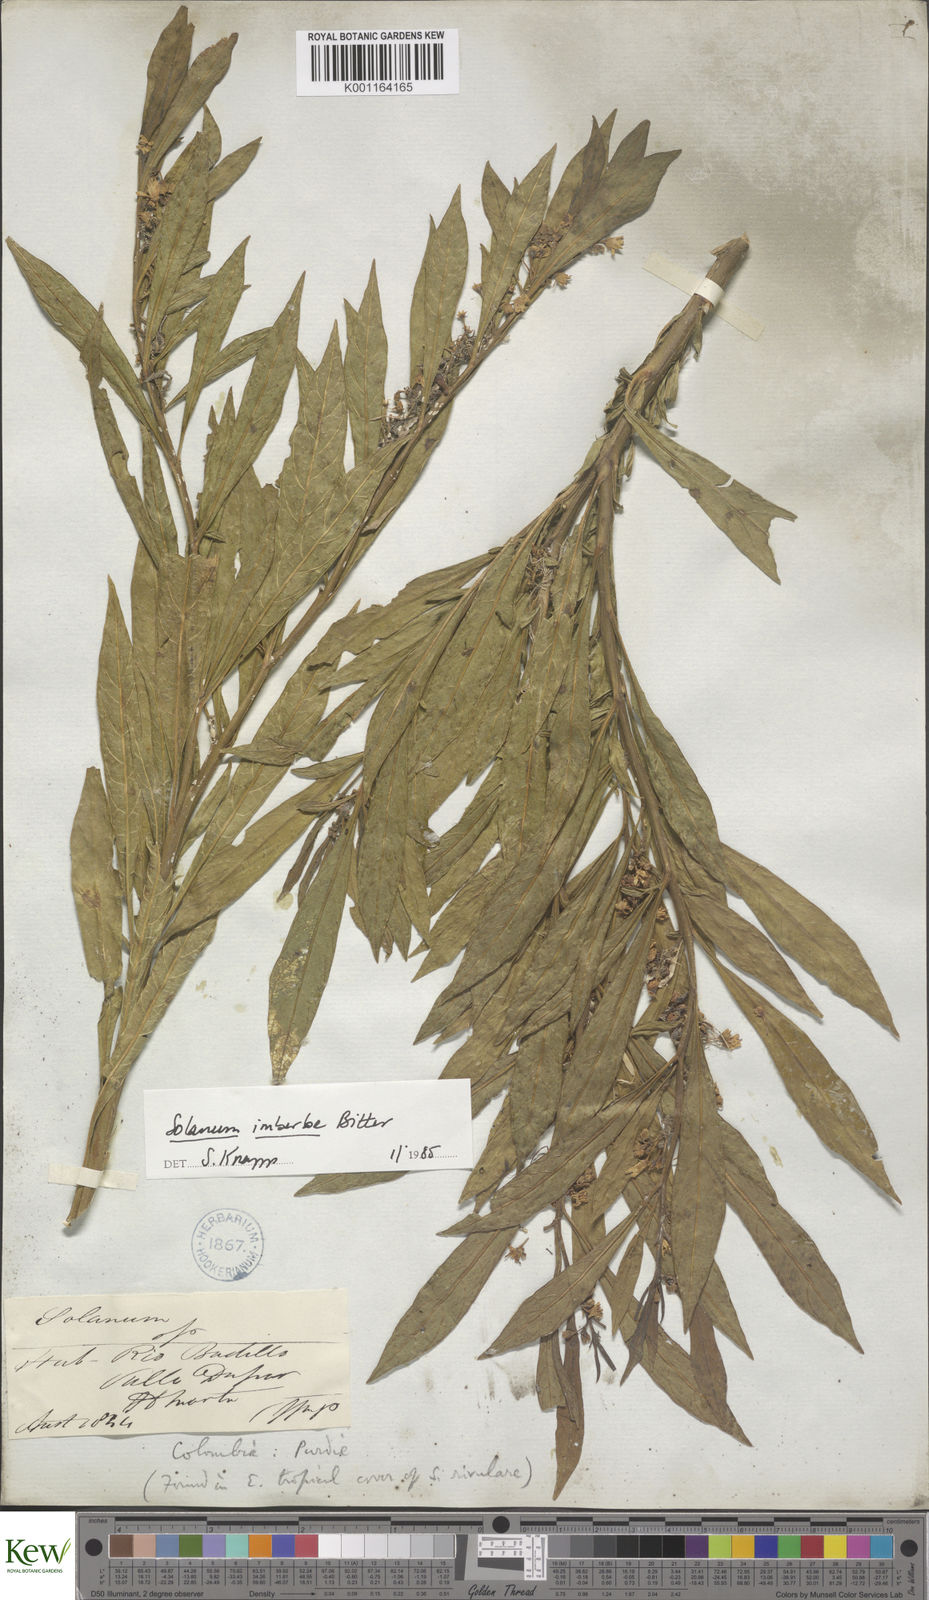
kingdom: Plantae
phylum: Tracheophyta
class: Magnoliopsida
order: Solanales
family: Solanaceae
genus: Solanum
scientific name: Solanum imberbe
